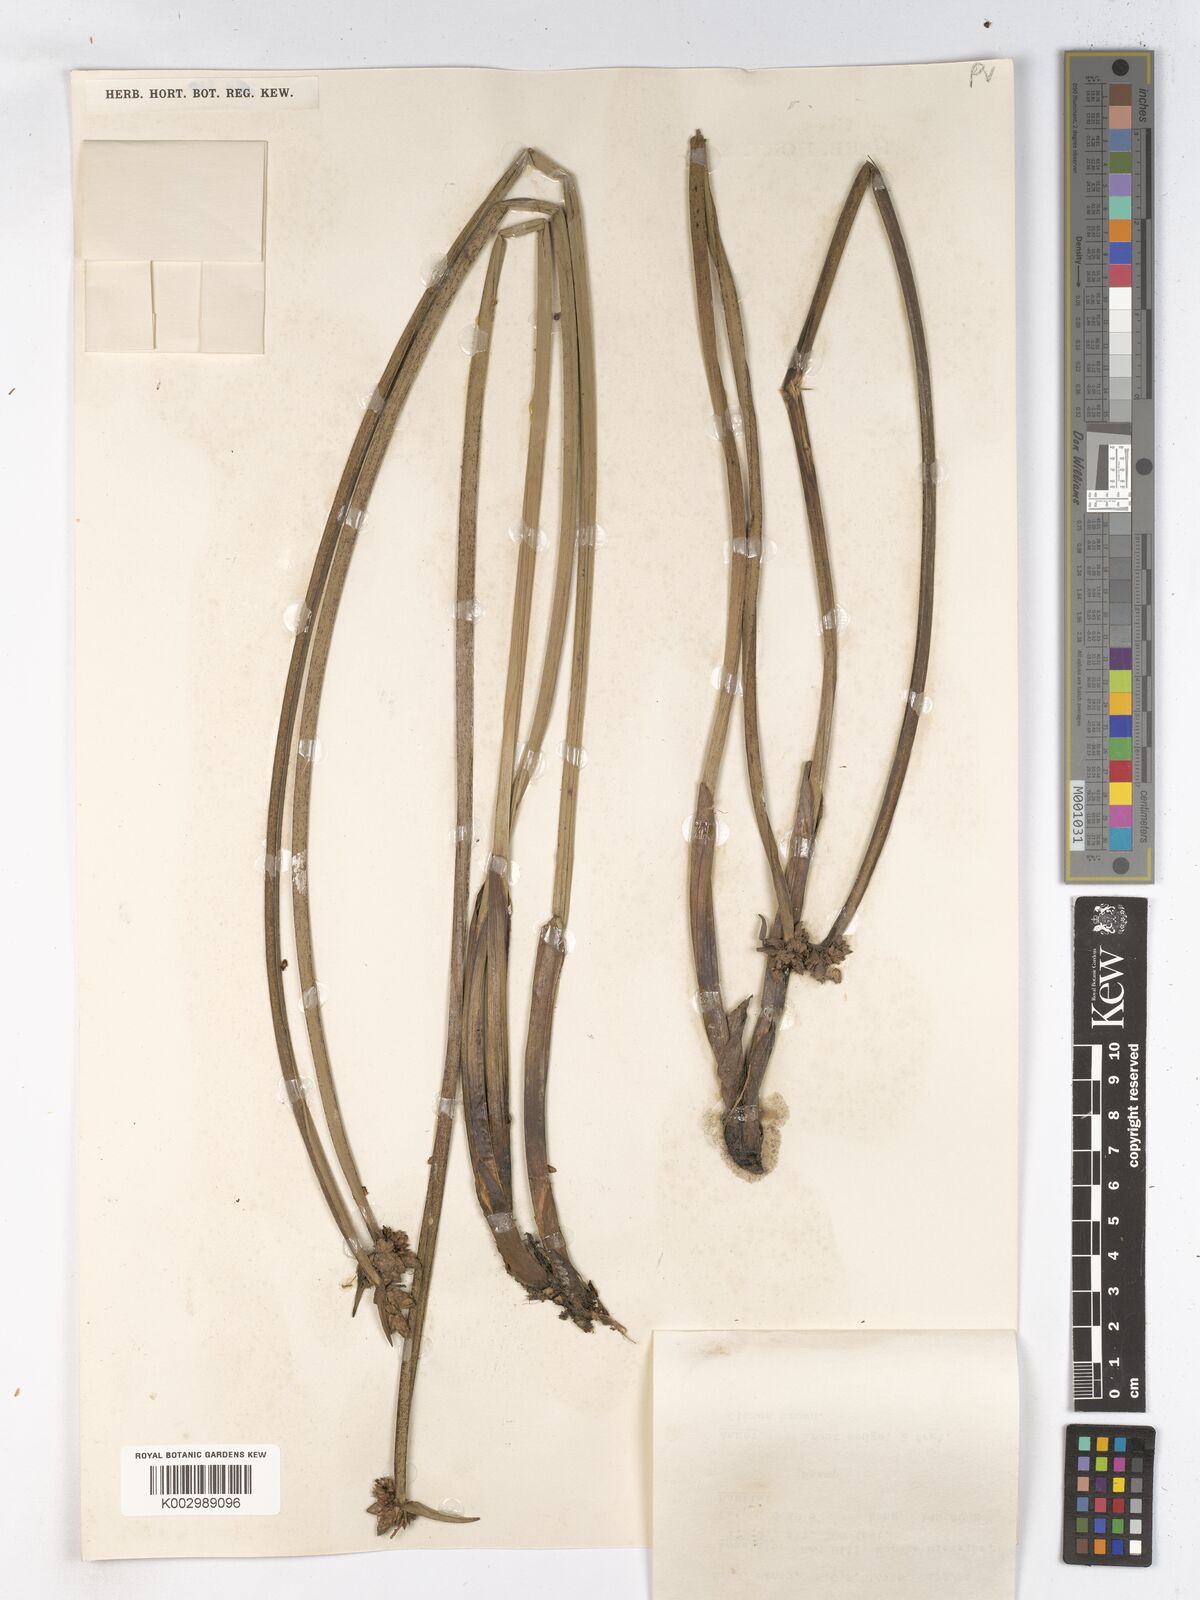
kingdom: Plantae
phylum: Tracheophyta
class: Liliopsida
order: Poales
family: Cyperaceae
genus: Schoenoplectiella
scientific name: Schoenoplectiella mucronata
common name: Bog bulrush
